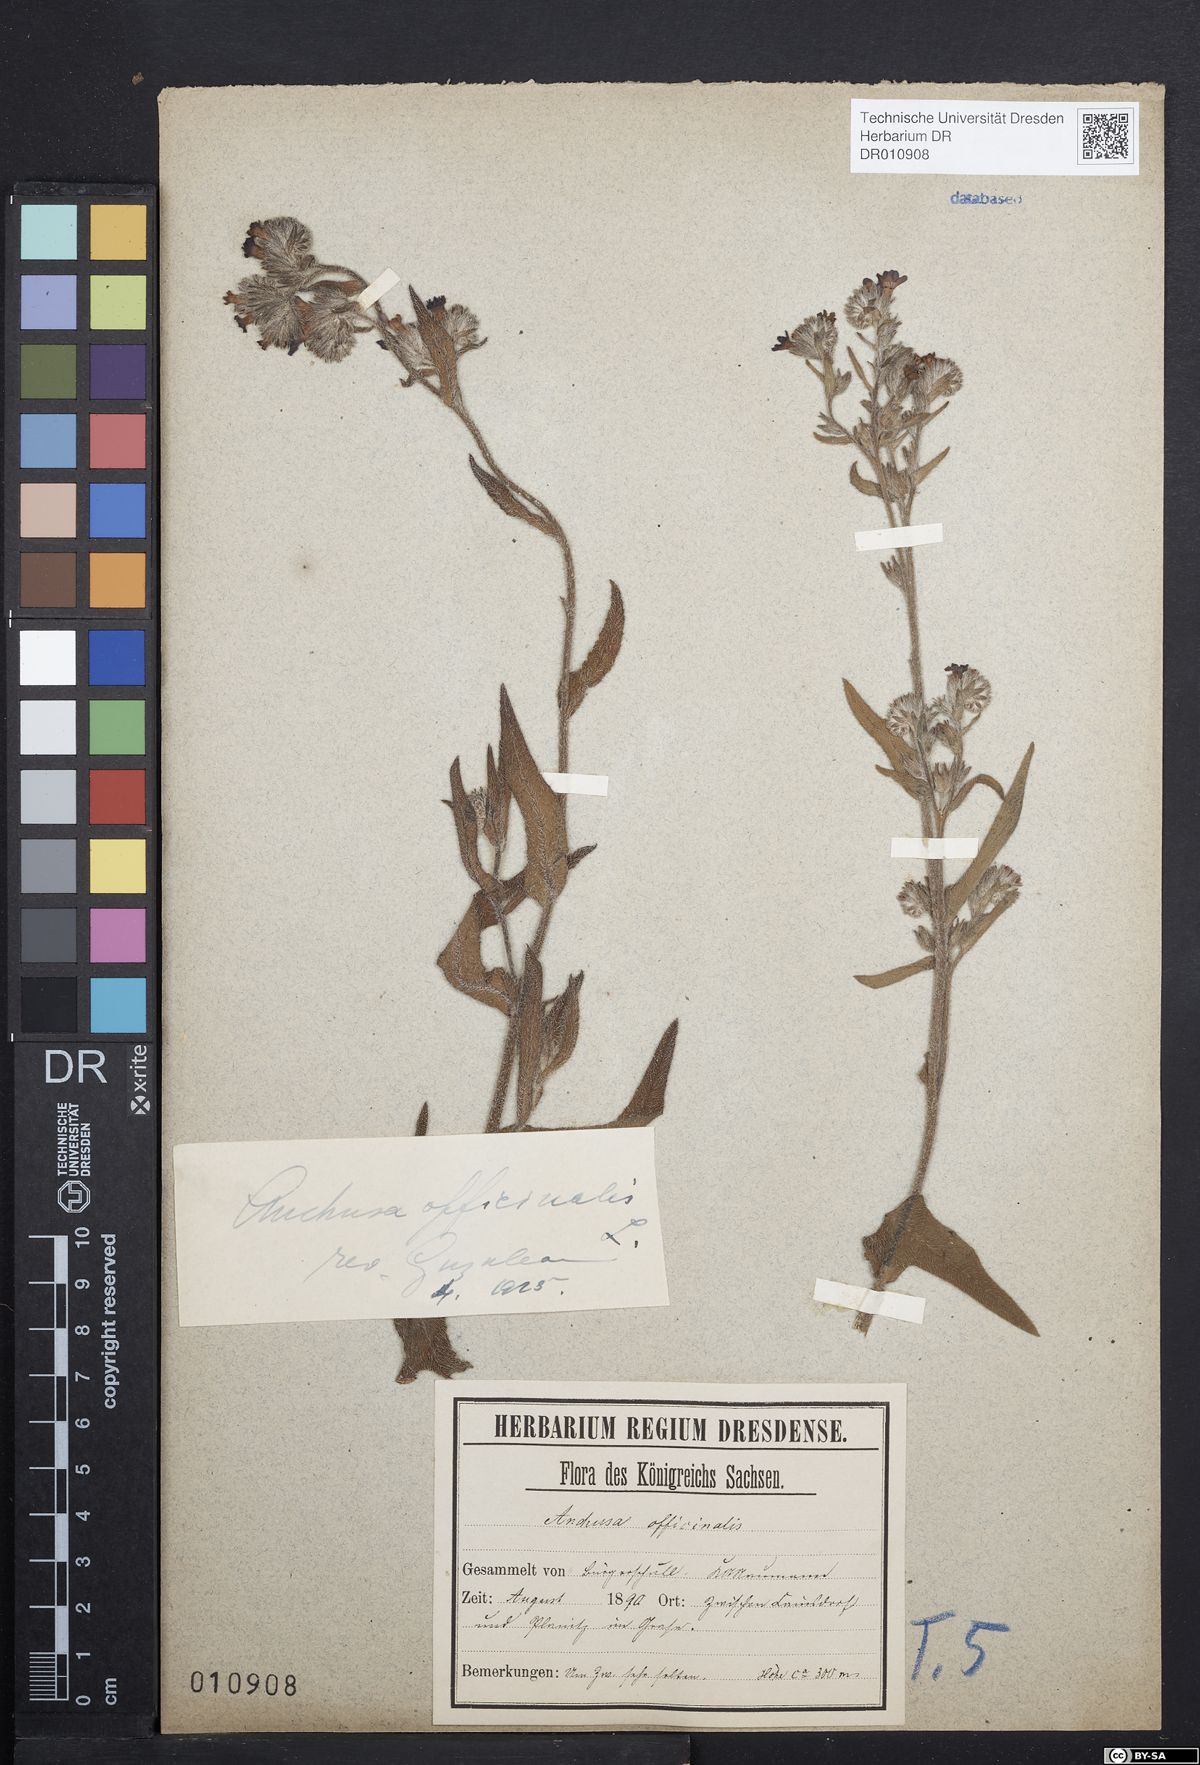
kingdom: Plantae
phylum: Tracheophyta
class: Magnoliopsida
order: Boraginales
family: Boraginaceae
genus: Anchusa
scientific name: Anchusa officinalis
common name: Alkanet
